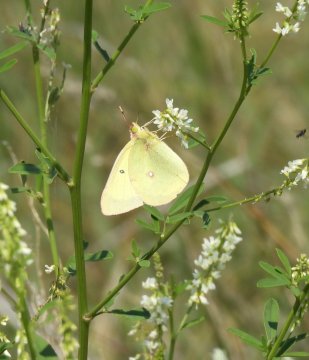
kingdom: Animalia
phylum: Arthropoda
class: Insecta
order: Lepidoptera
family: Pieridae
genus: Colias
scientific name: Colias interior
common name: Pink-edged Sulphur
